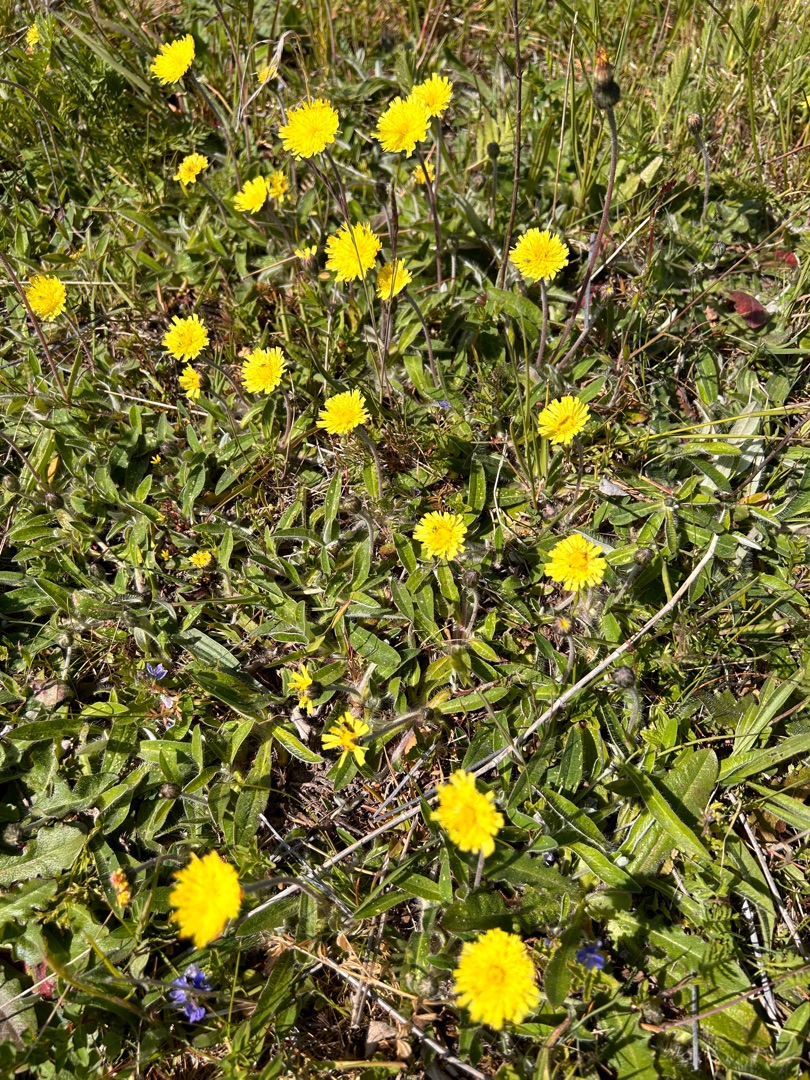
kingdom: Plantae
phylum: Tracheophyta
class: Magnoliopsida
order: Asterales
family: Asteraceae
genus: Pilosella
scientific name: Pilosella officinarum
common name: Håret høgeurt
